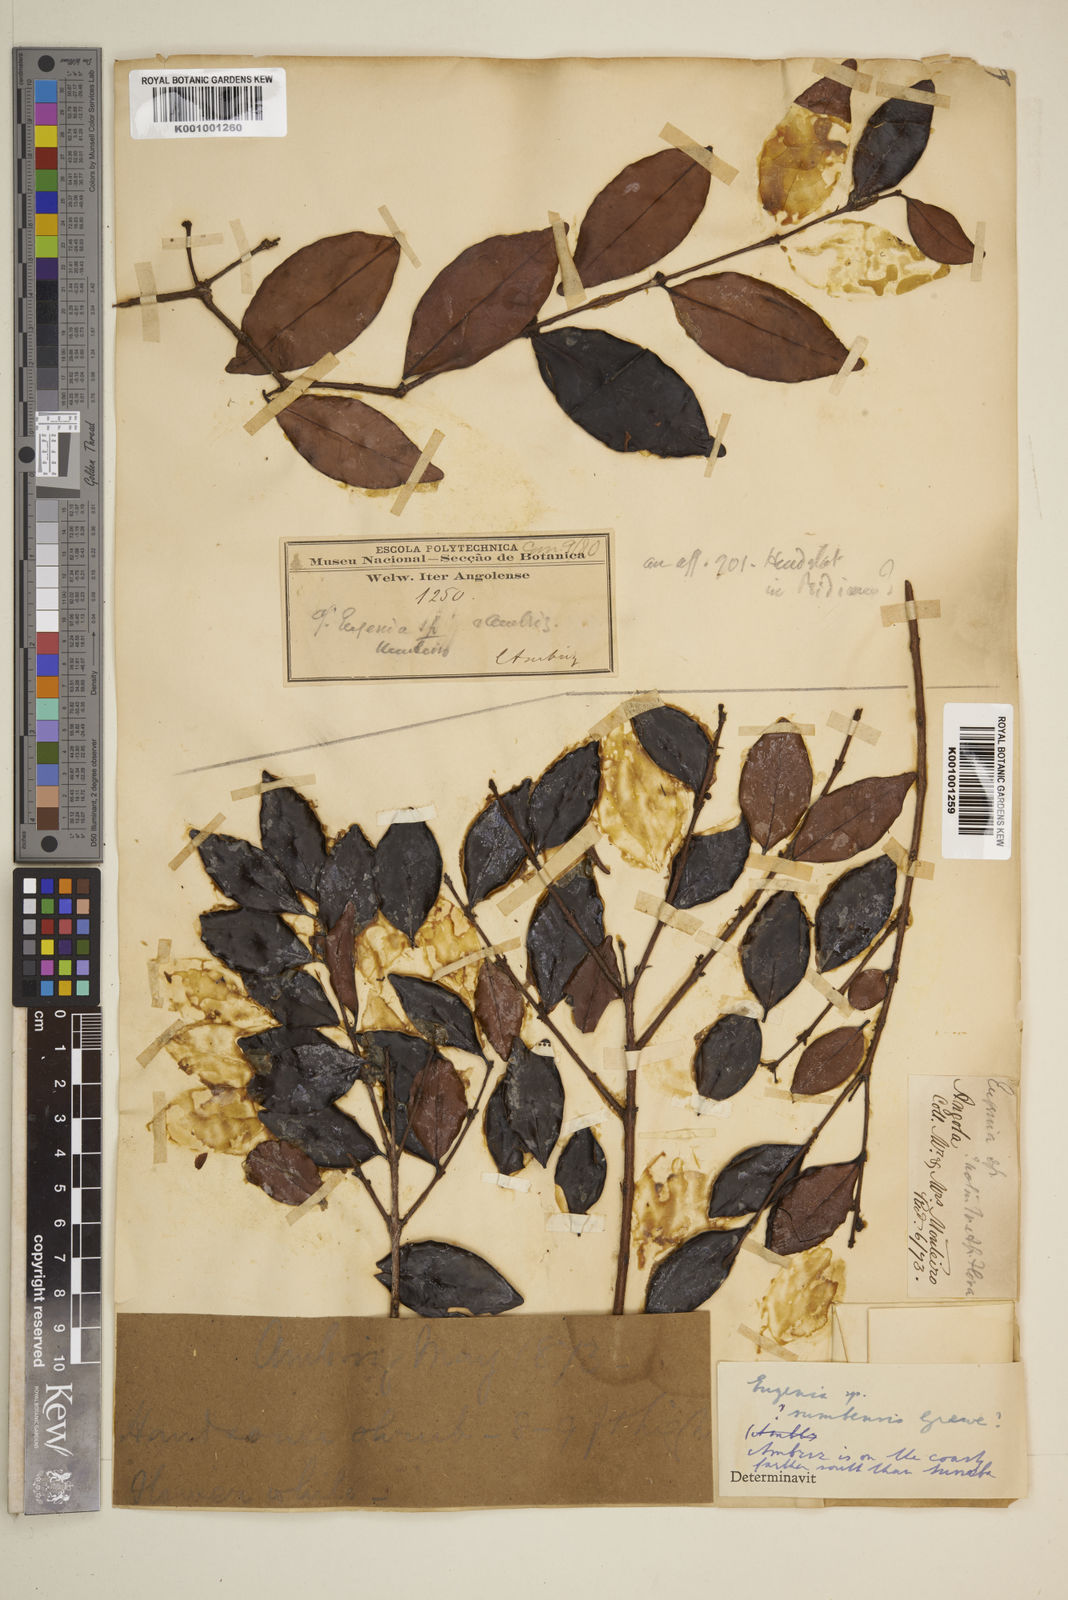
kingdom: Plantae
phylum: Tracheophyta
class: Magnoliopsida
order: Myrtales
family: Myrtaceae
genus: Eugenia
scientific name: Eugenia sumbensis
